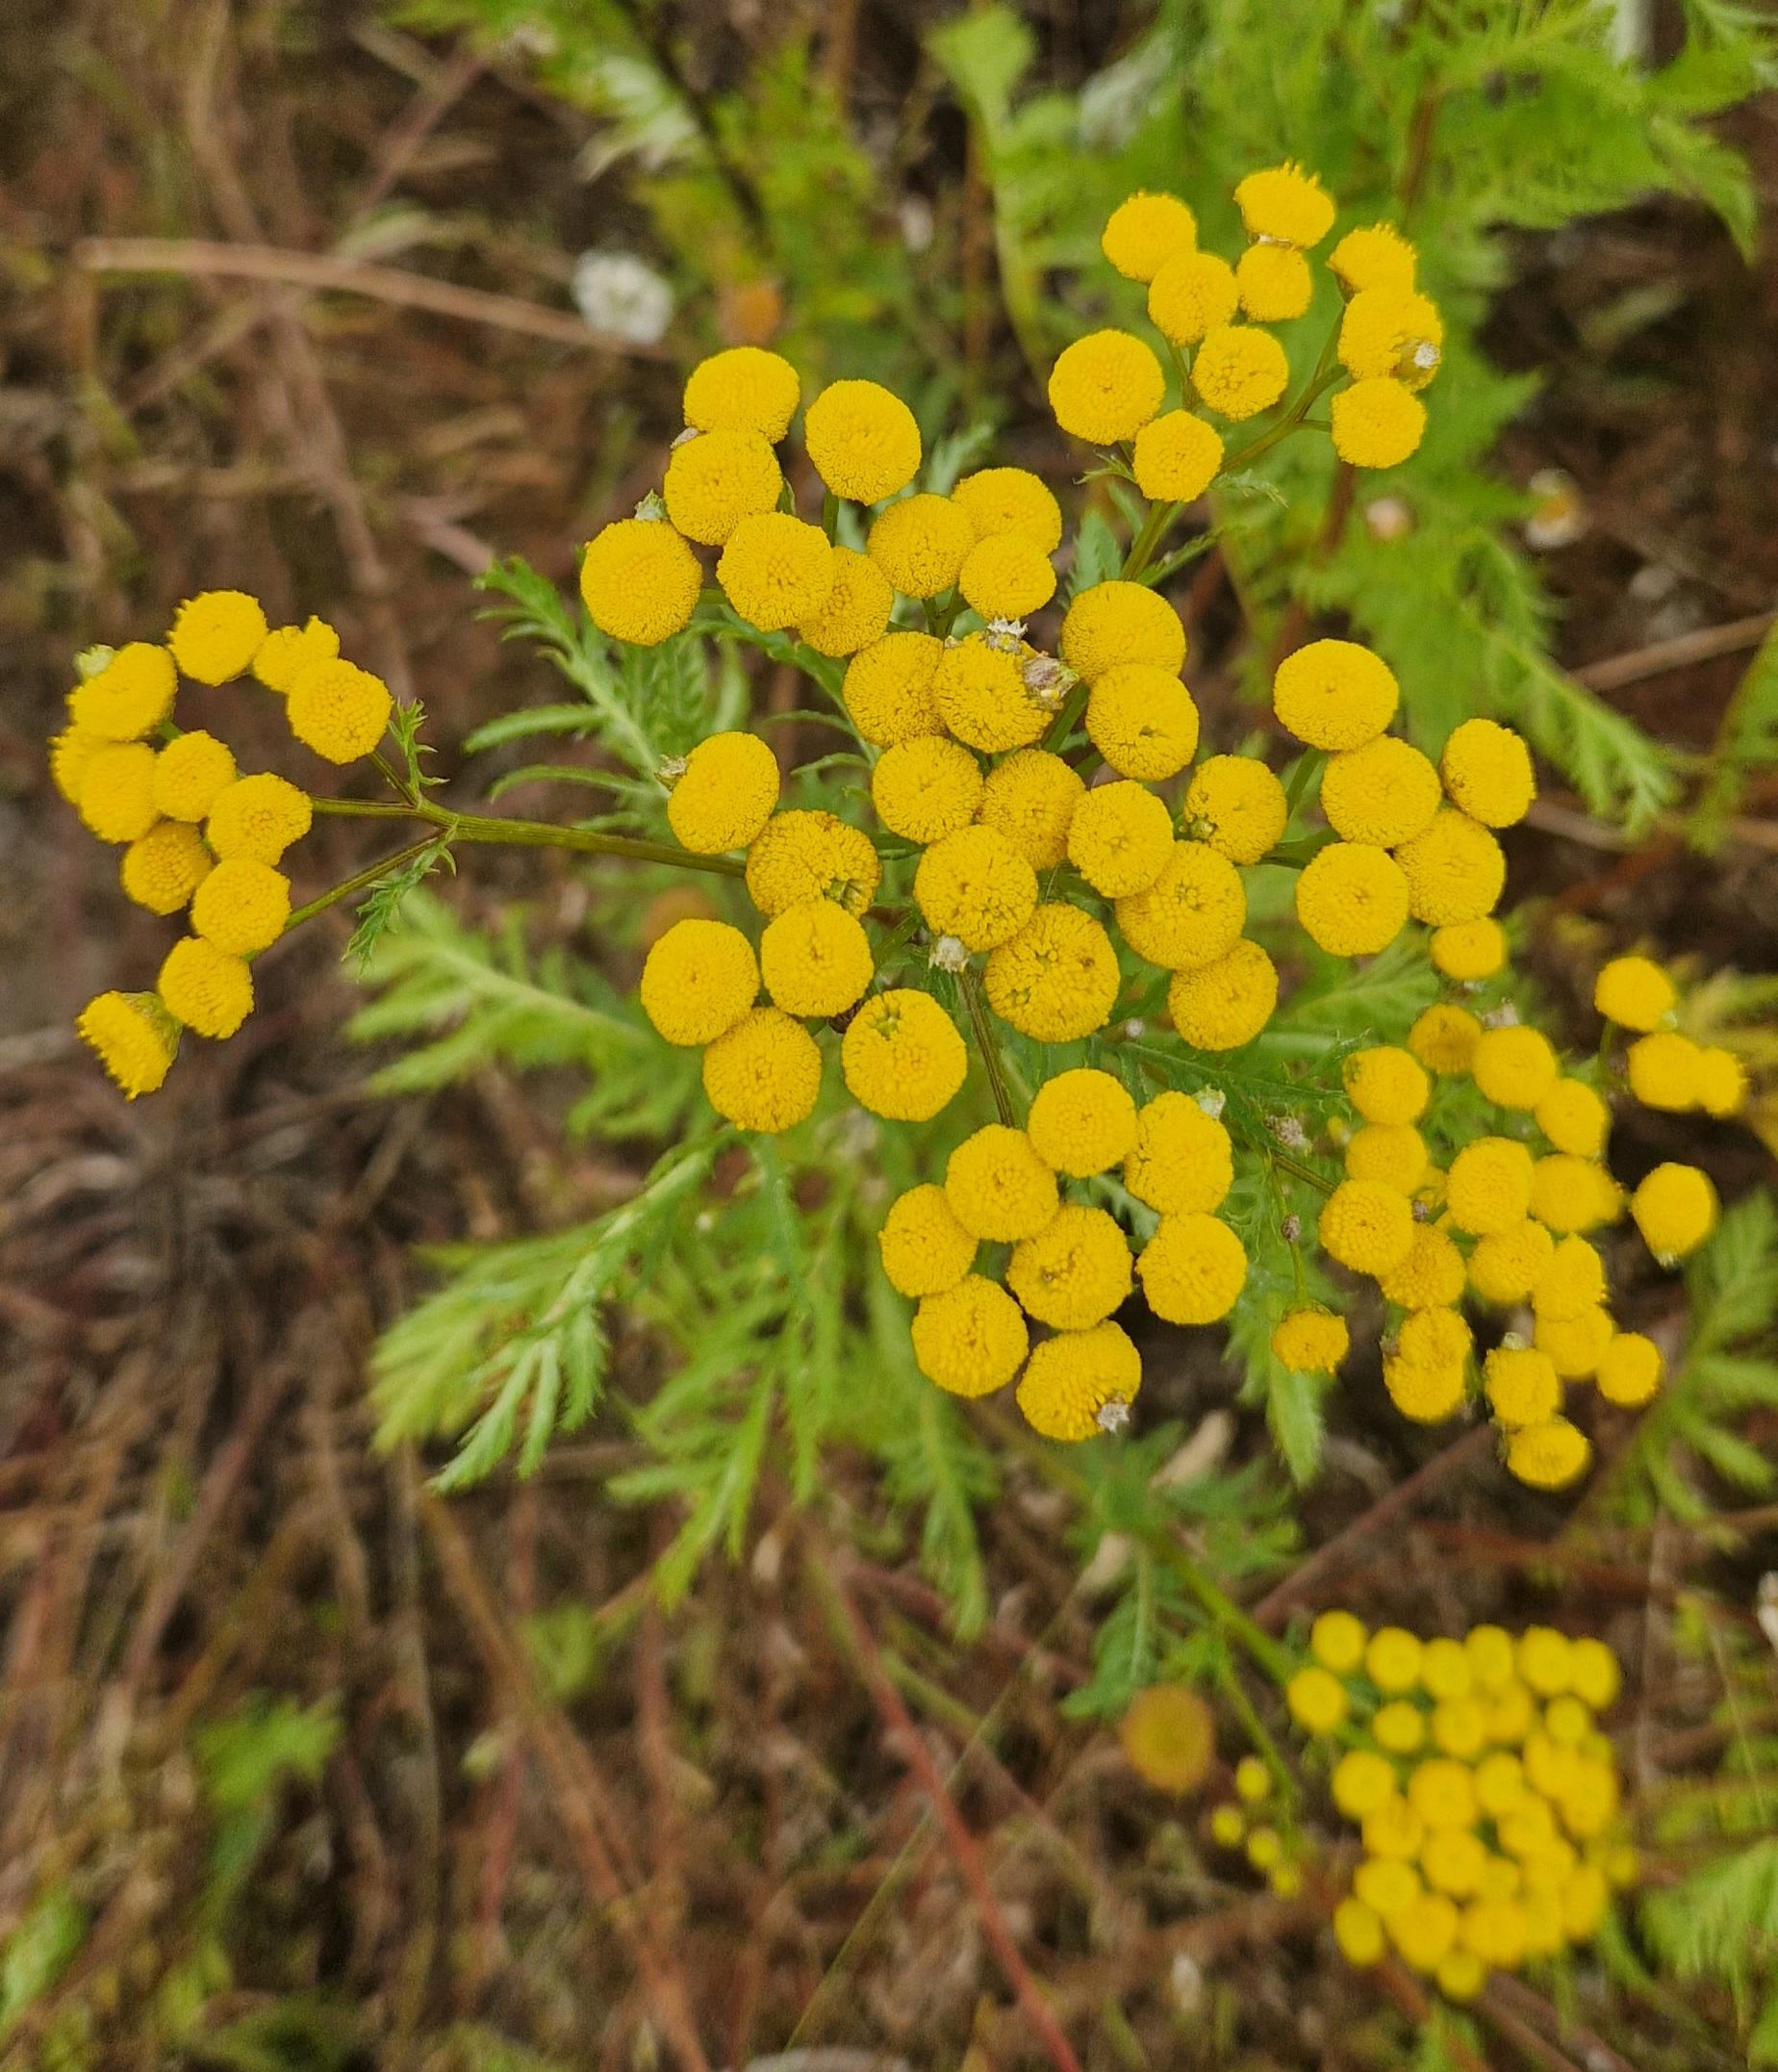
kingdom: Plantae
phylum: Tracheophyta
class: Magnoliopsida
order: Asterales
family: Asteraceae
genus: Tanacetum
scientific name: Tanacetum vulgare
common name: Rejnfan
